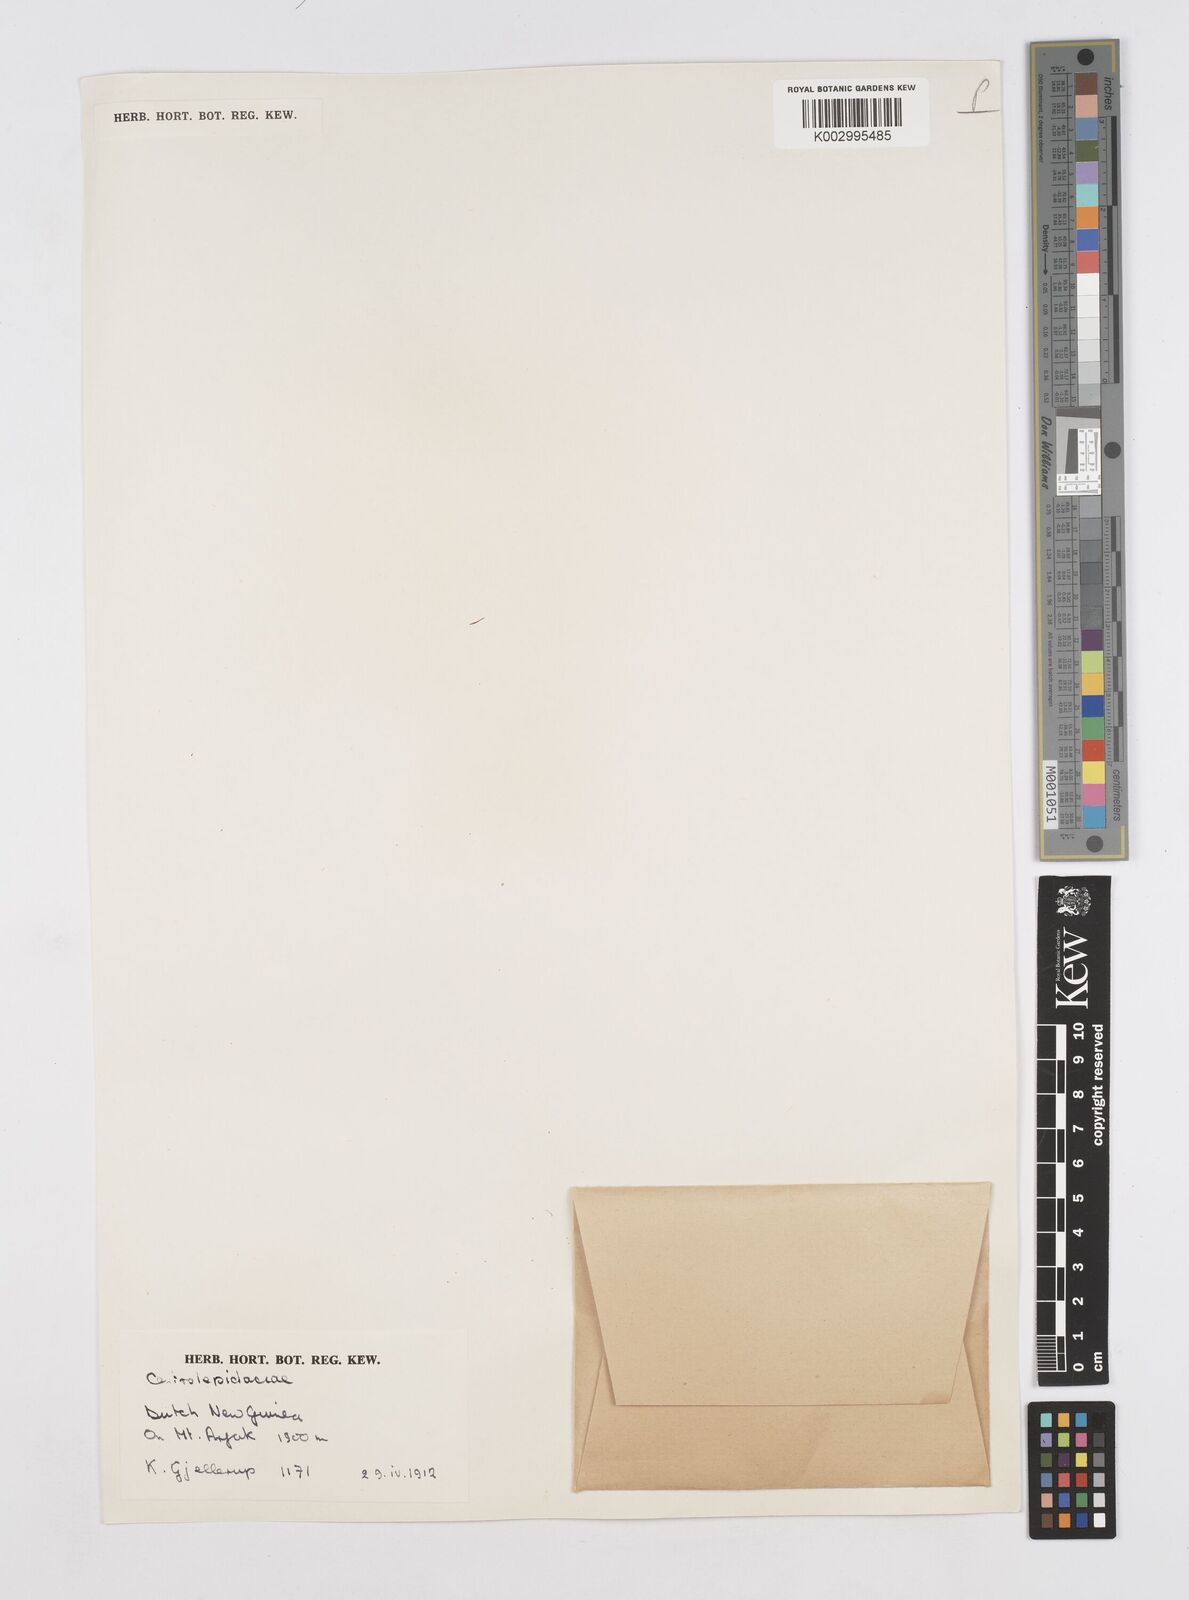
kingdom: Plantae
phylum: Tracheophyta
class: Liliopsida
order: Poales
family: Restionaceae
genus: Centrolepis
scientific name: Centrolepis
